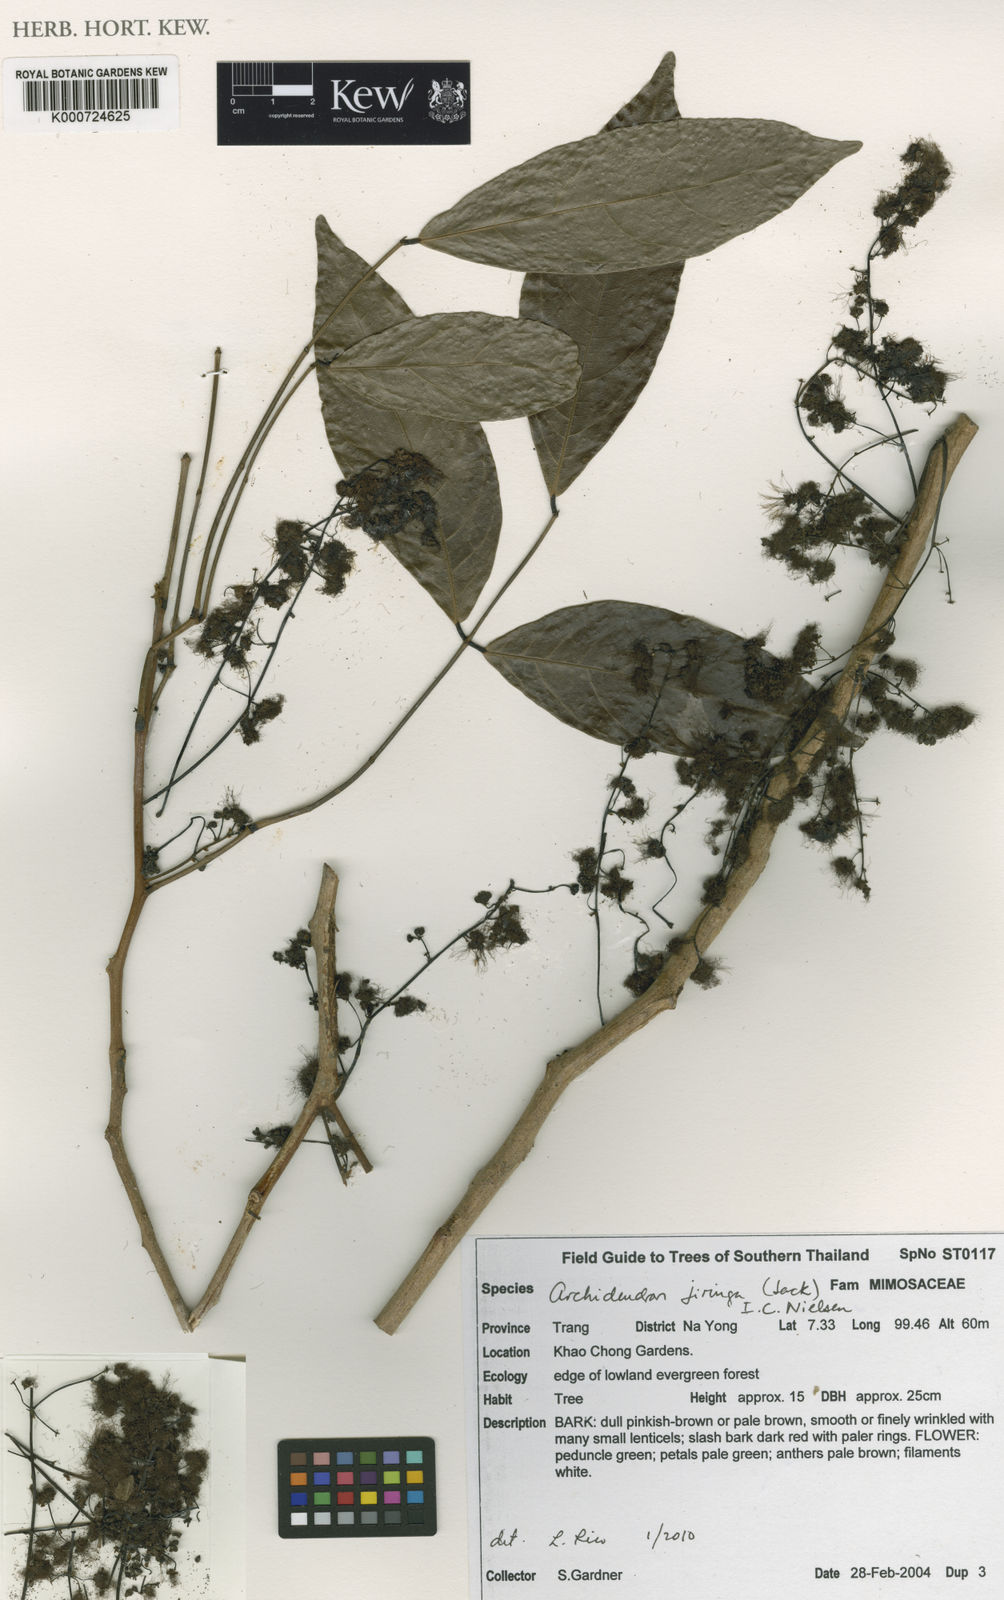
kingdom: Plantae
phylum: Tracheophyta
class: Magnoliopsida
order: Fabales
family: Fabaceae
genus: Archidendron
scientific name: Archidendron jiringa
